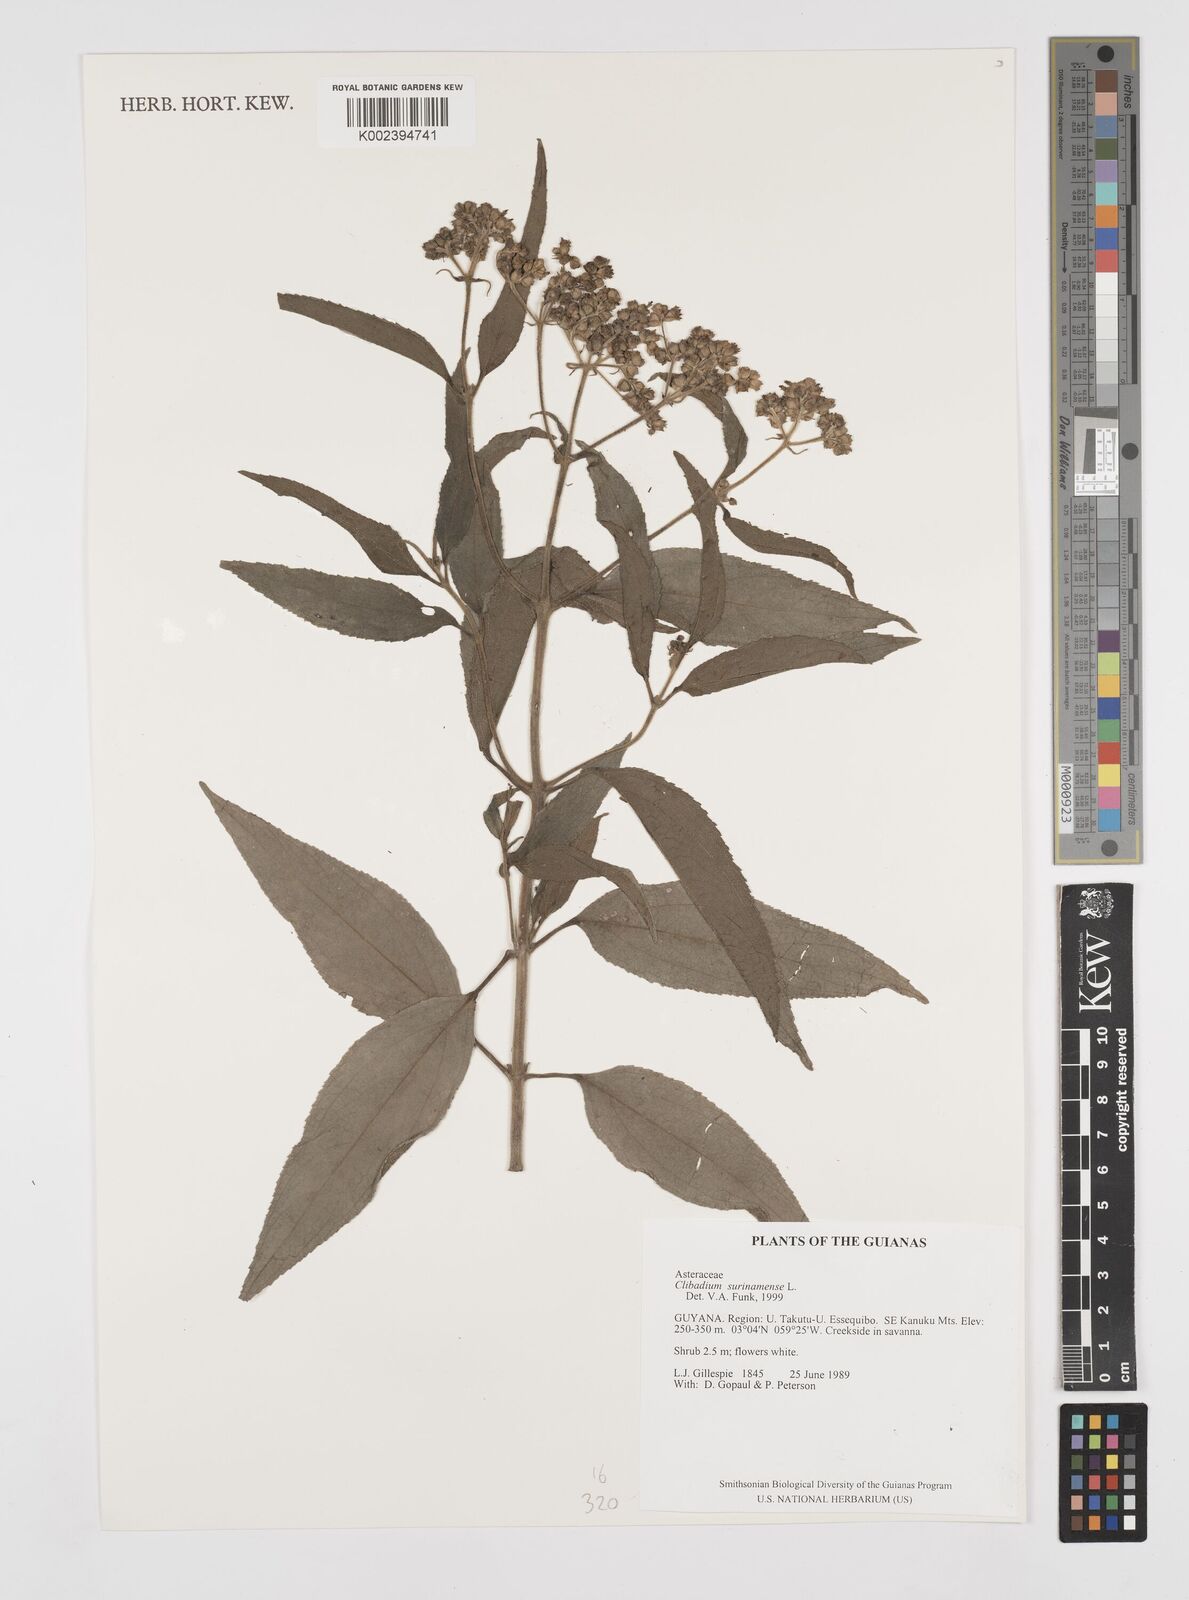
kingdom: Plantae
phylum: Tracheophyta
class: Magnoliopsida
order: Asterales
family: Asteraceae
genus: Clibadium
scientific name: Clibadium surinamense
